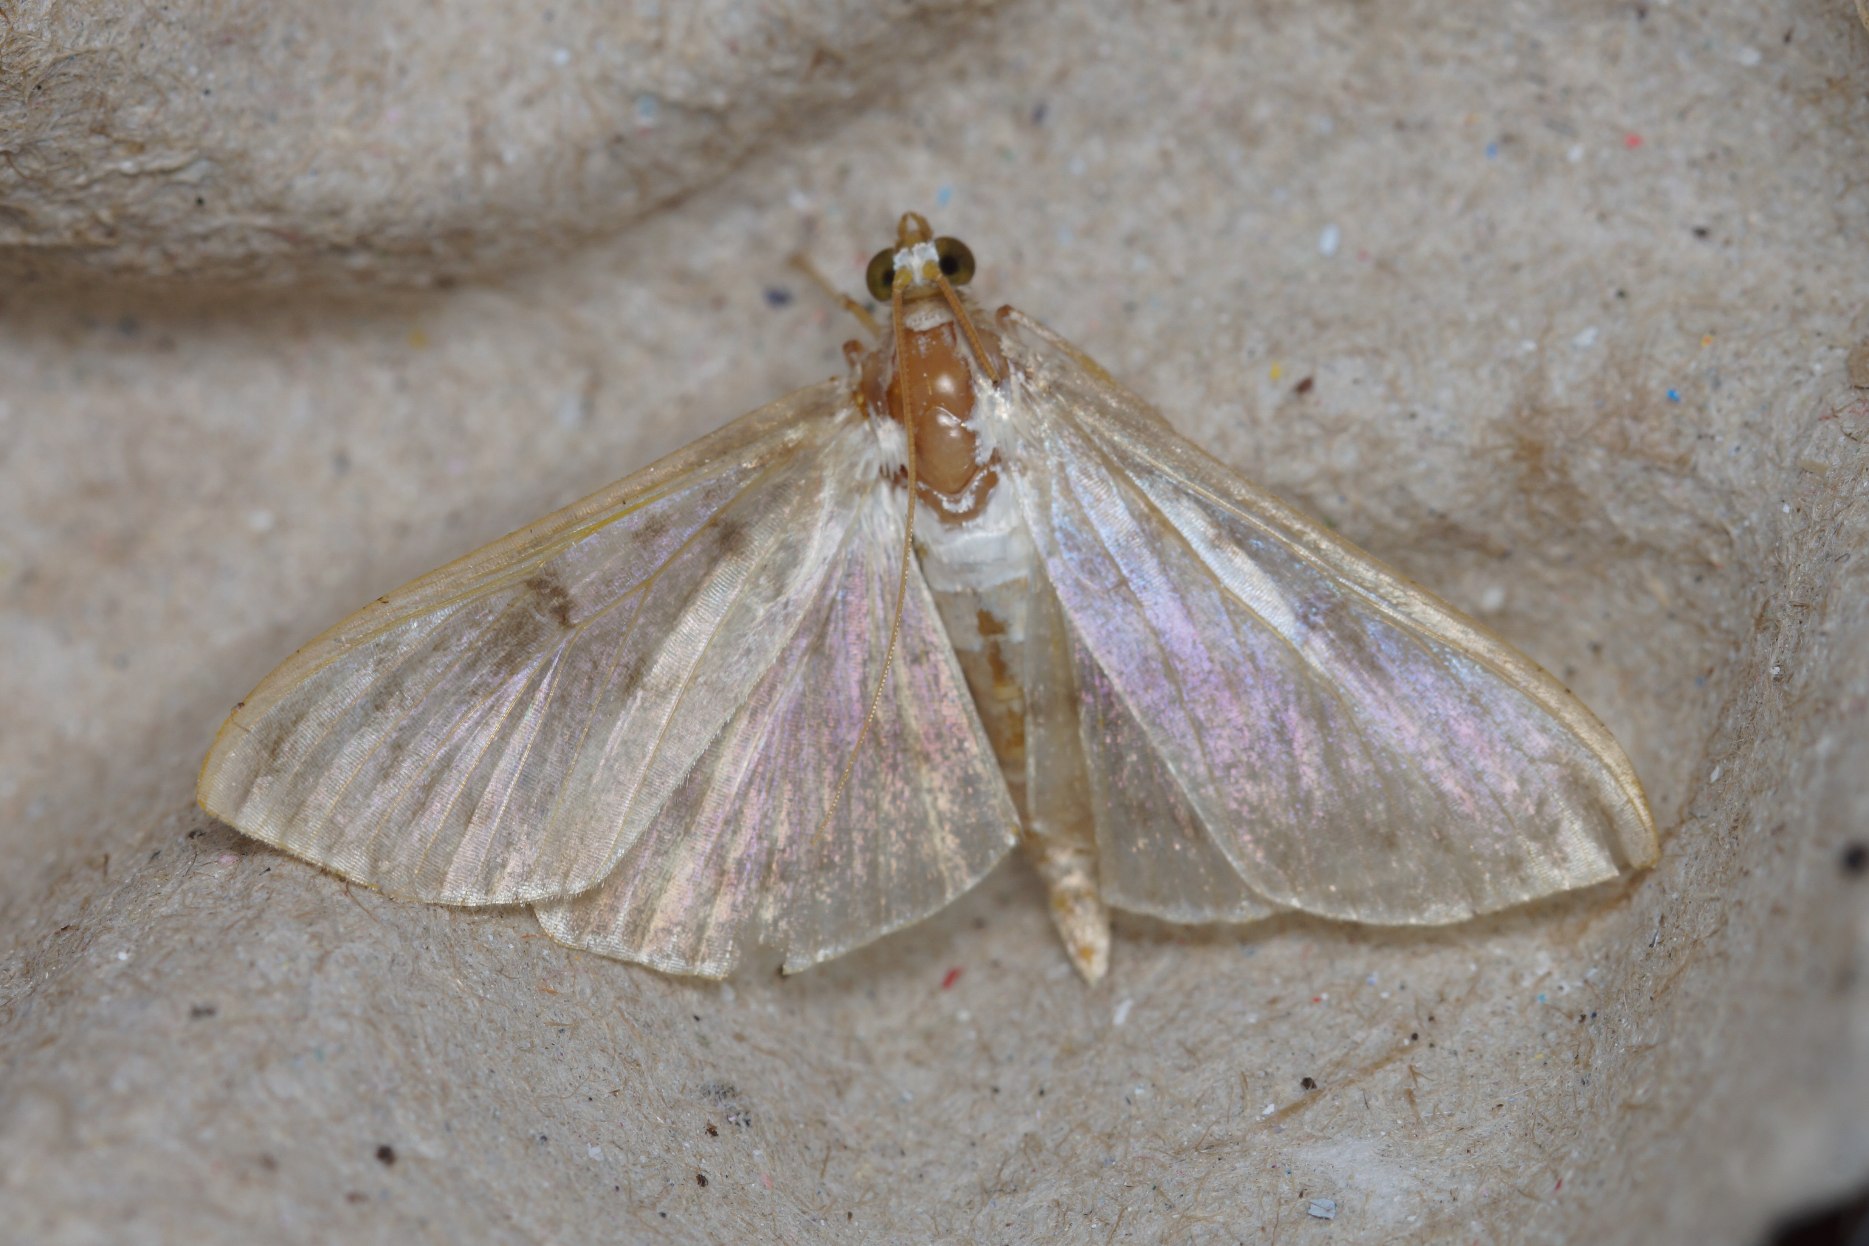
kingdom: Animalia
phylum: Arthropoda
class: Insecta
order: Lepidoptera
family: Crambidae
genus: Patania
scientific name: Patania ruralis
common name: Perlemorshalvmøl
